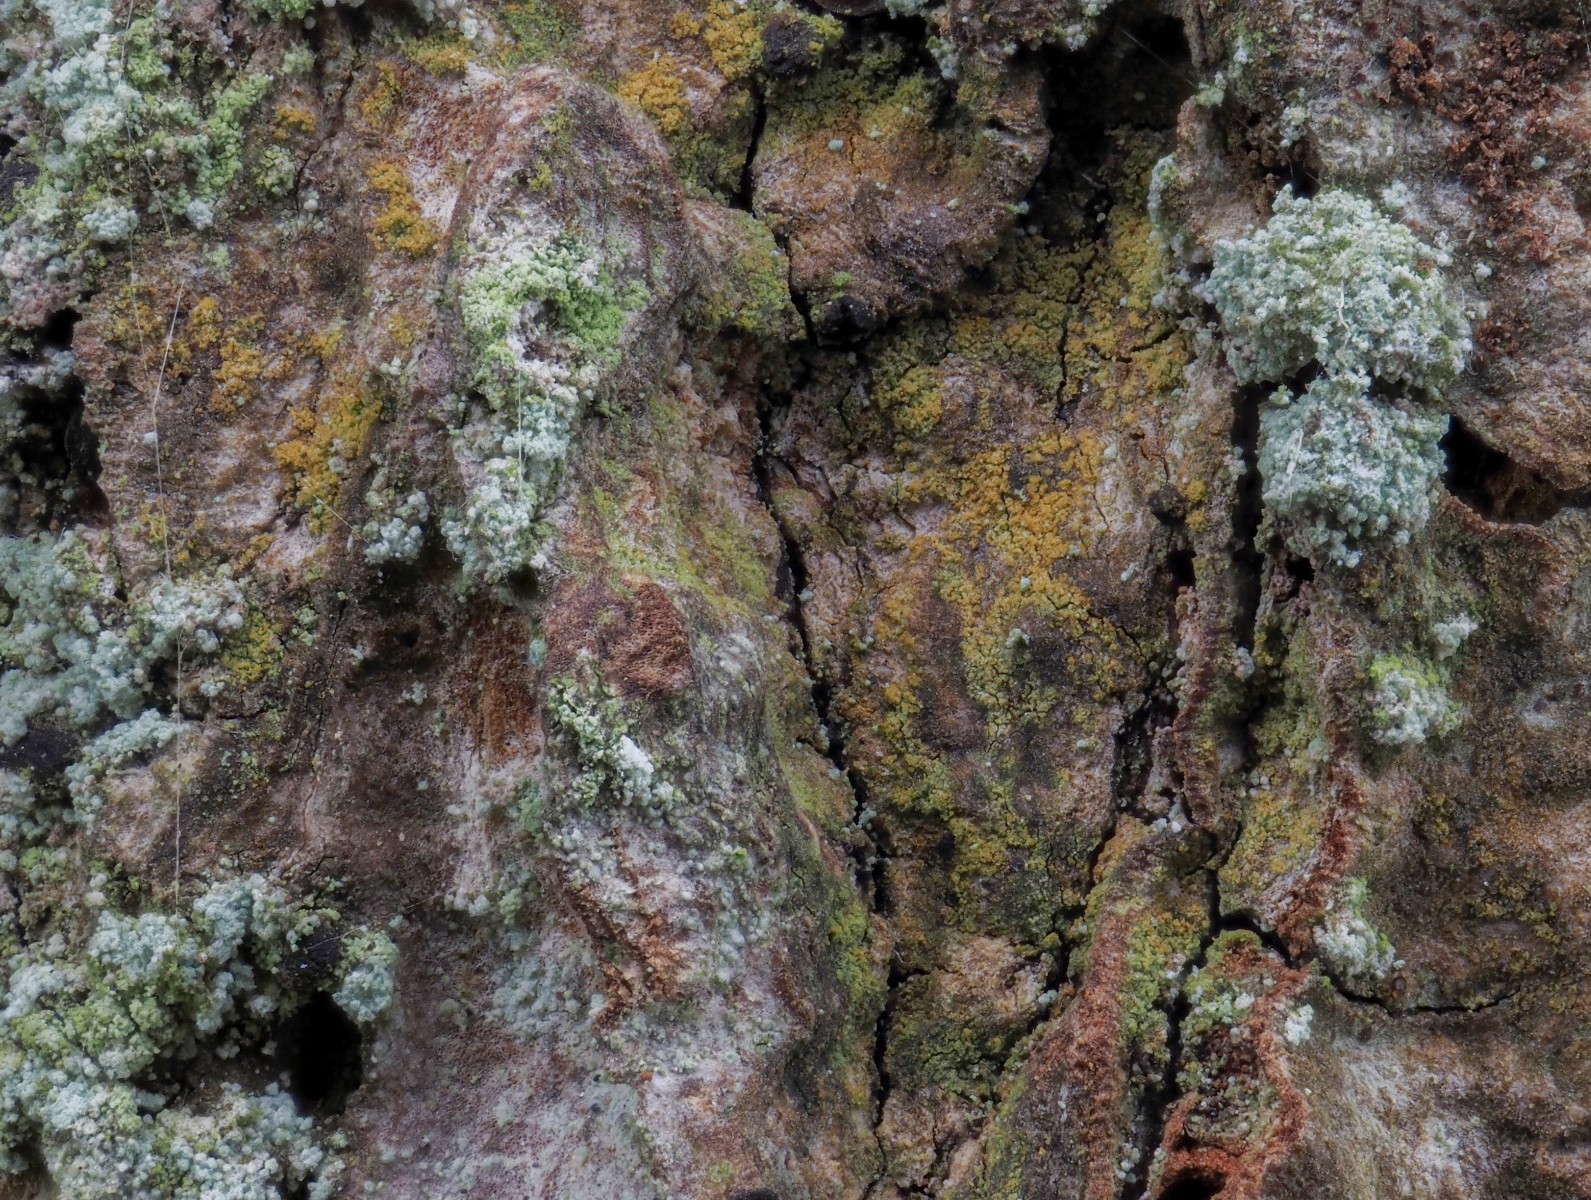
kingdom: Fungi
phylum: Ascomycota
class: Arthoniomycetes
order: Arthoniales
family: Lecanographaceae
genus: Zwackhia
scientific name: Zwackhia sorediifera
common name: forsvindende bogstavlav
